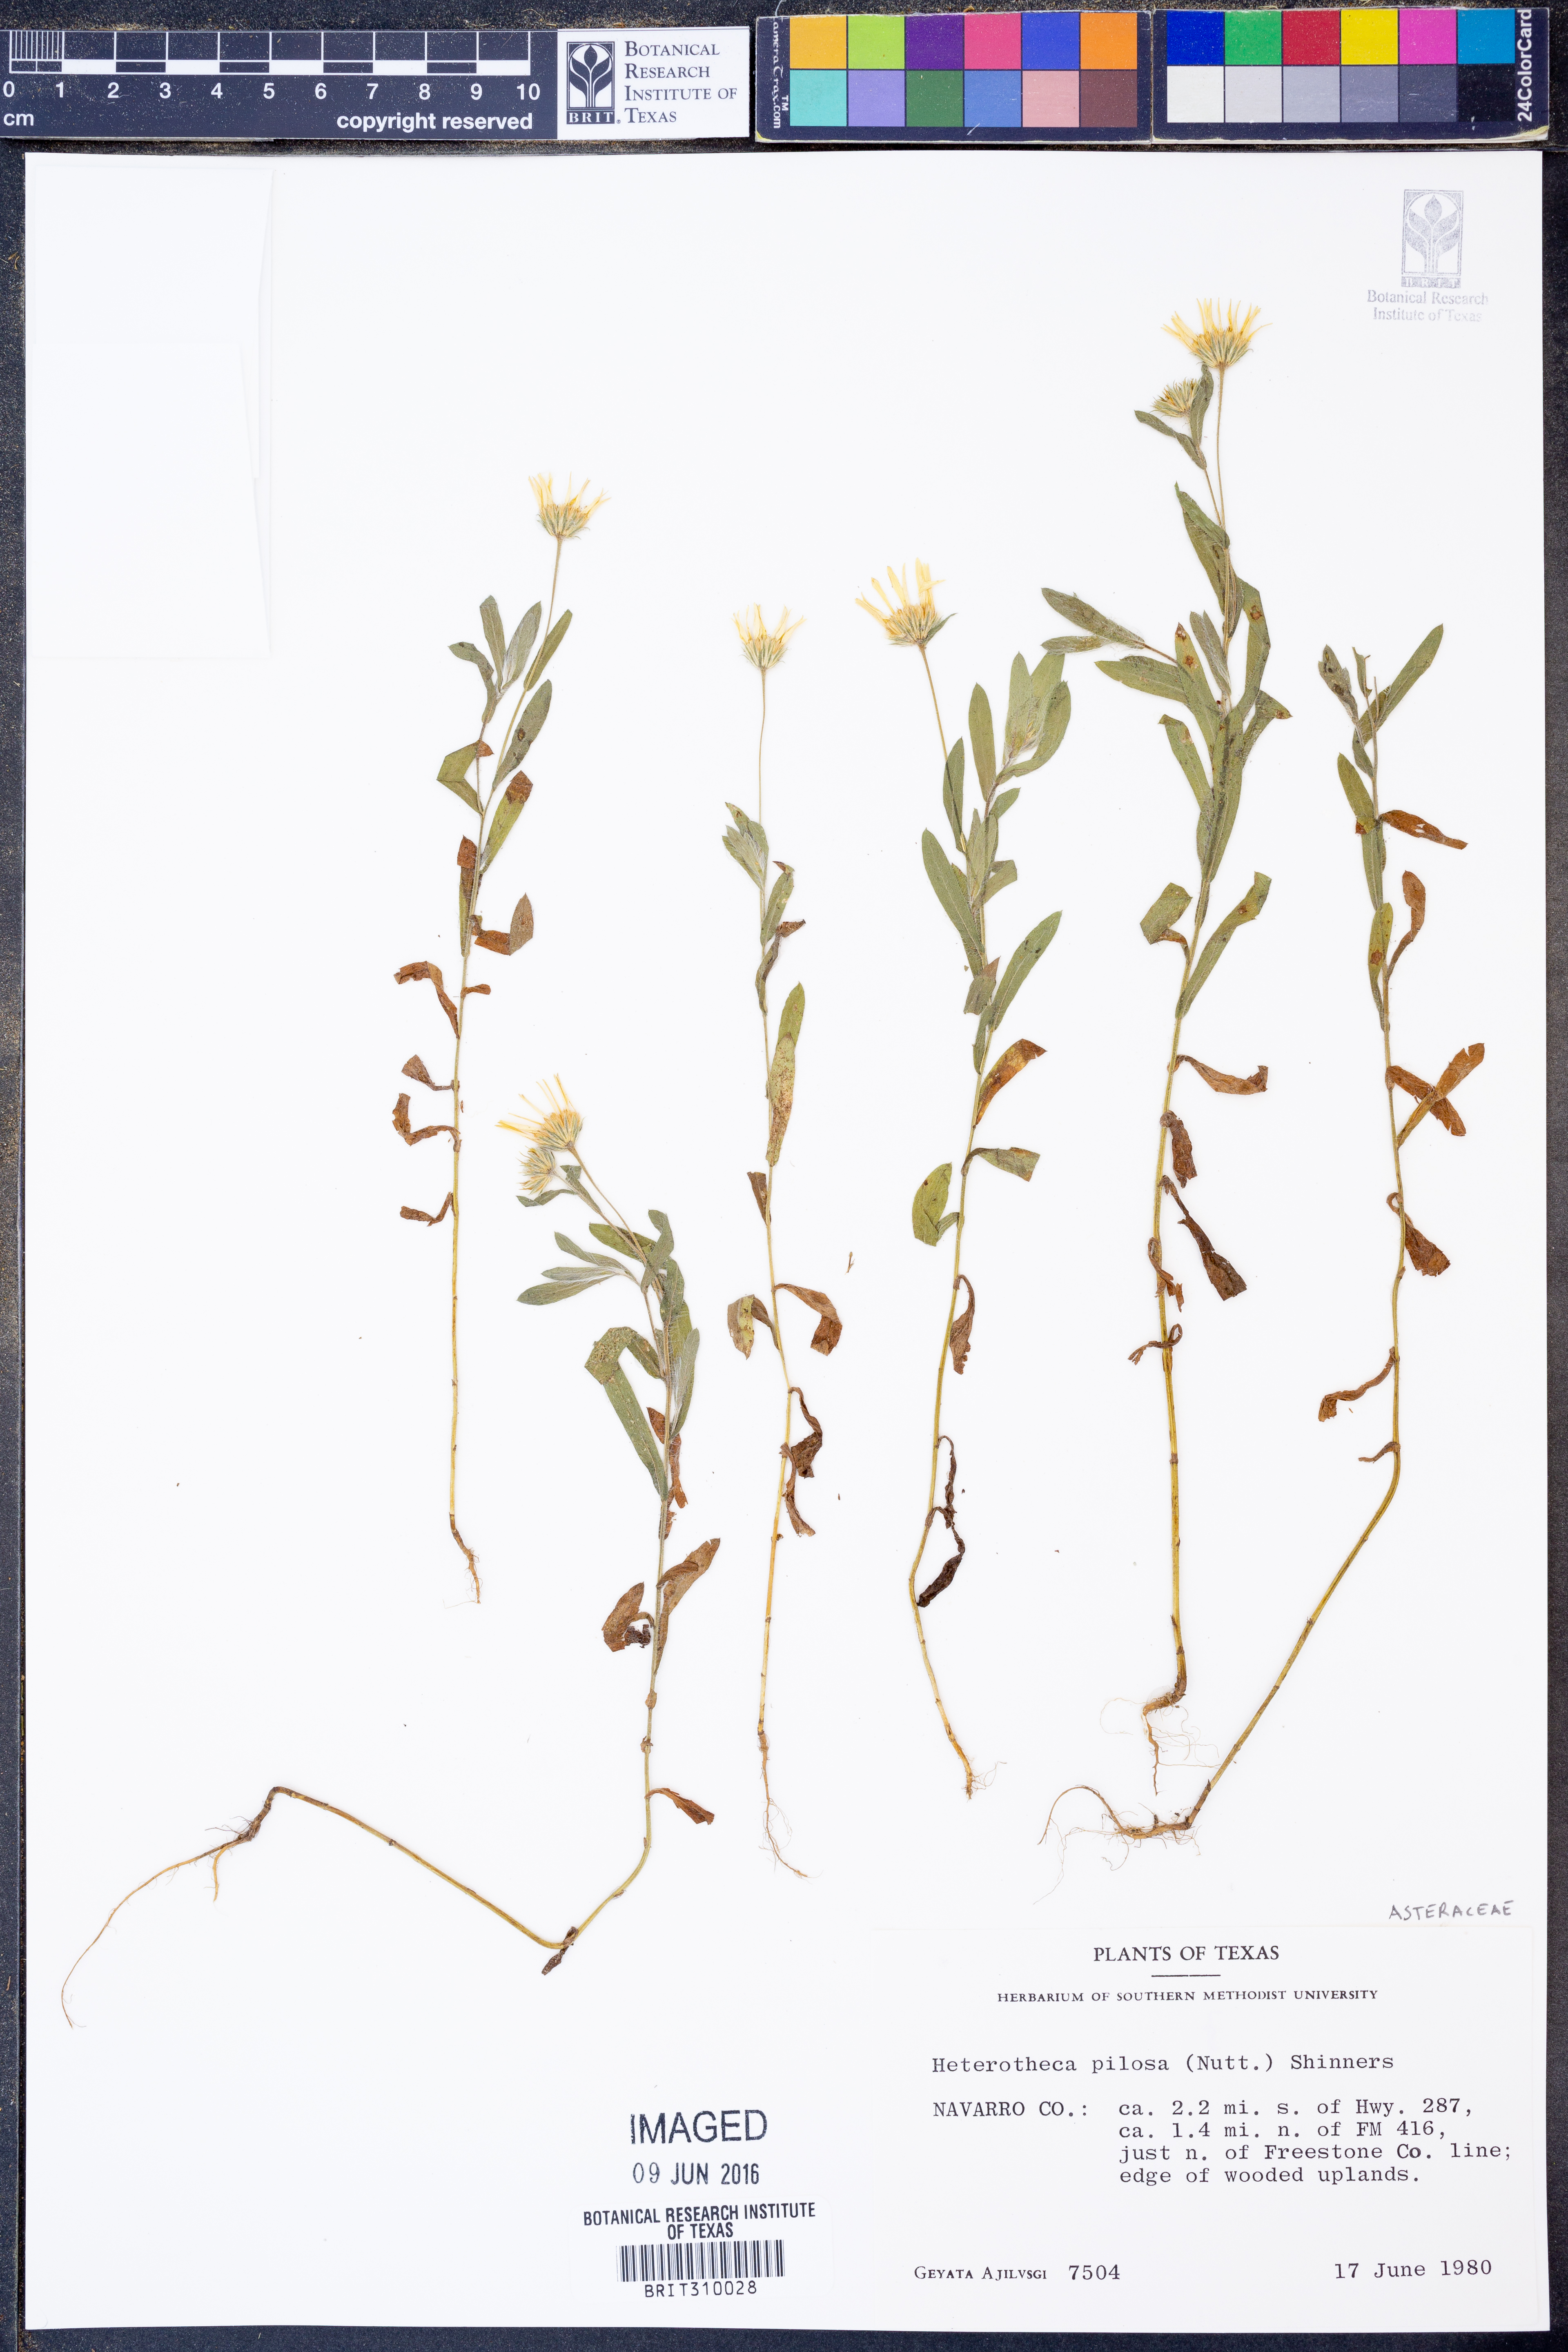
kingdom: Plantae
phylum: Tracheophyta
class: Magnoliopsida
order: Asterales
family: Asteraceae
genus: Bradburia
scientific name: Bradburia pilosa
